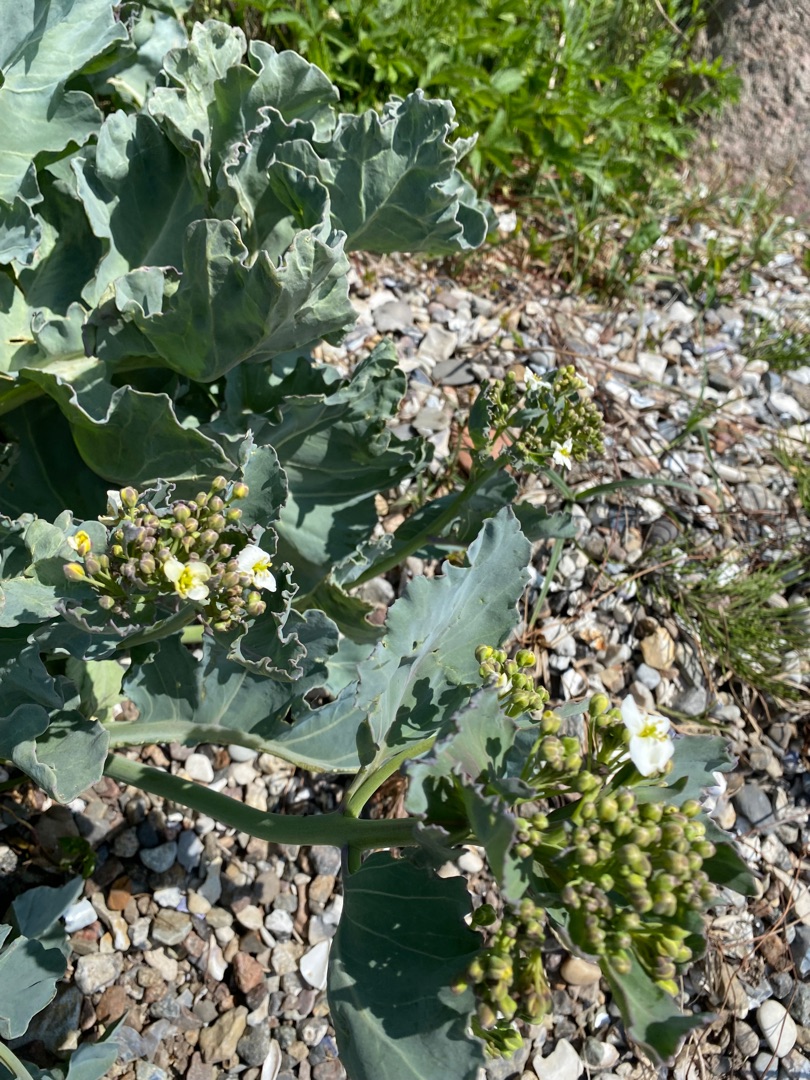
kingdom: Plantae
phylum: Tracheophyta
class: Magnoliopsida
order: Brassicales
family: Brassicaceae
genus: Crambe
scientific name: Crambe maritima
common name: Strandkål
